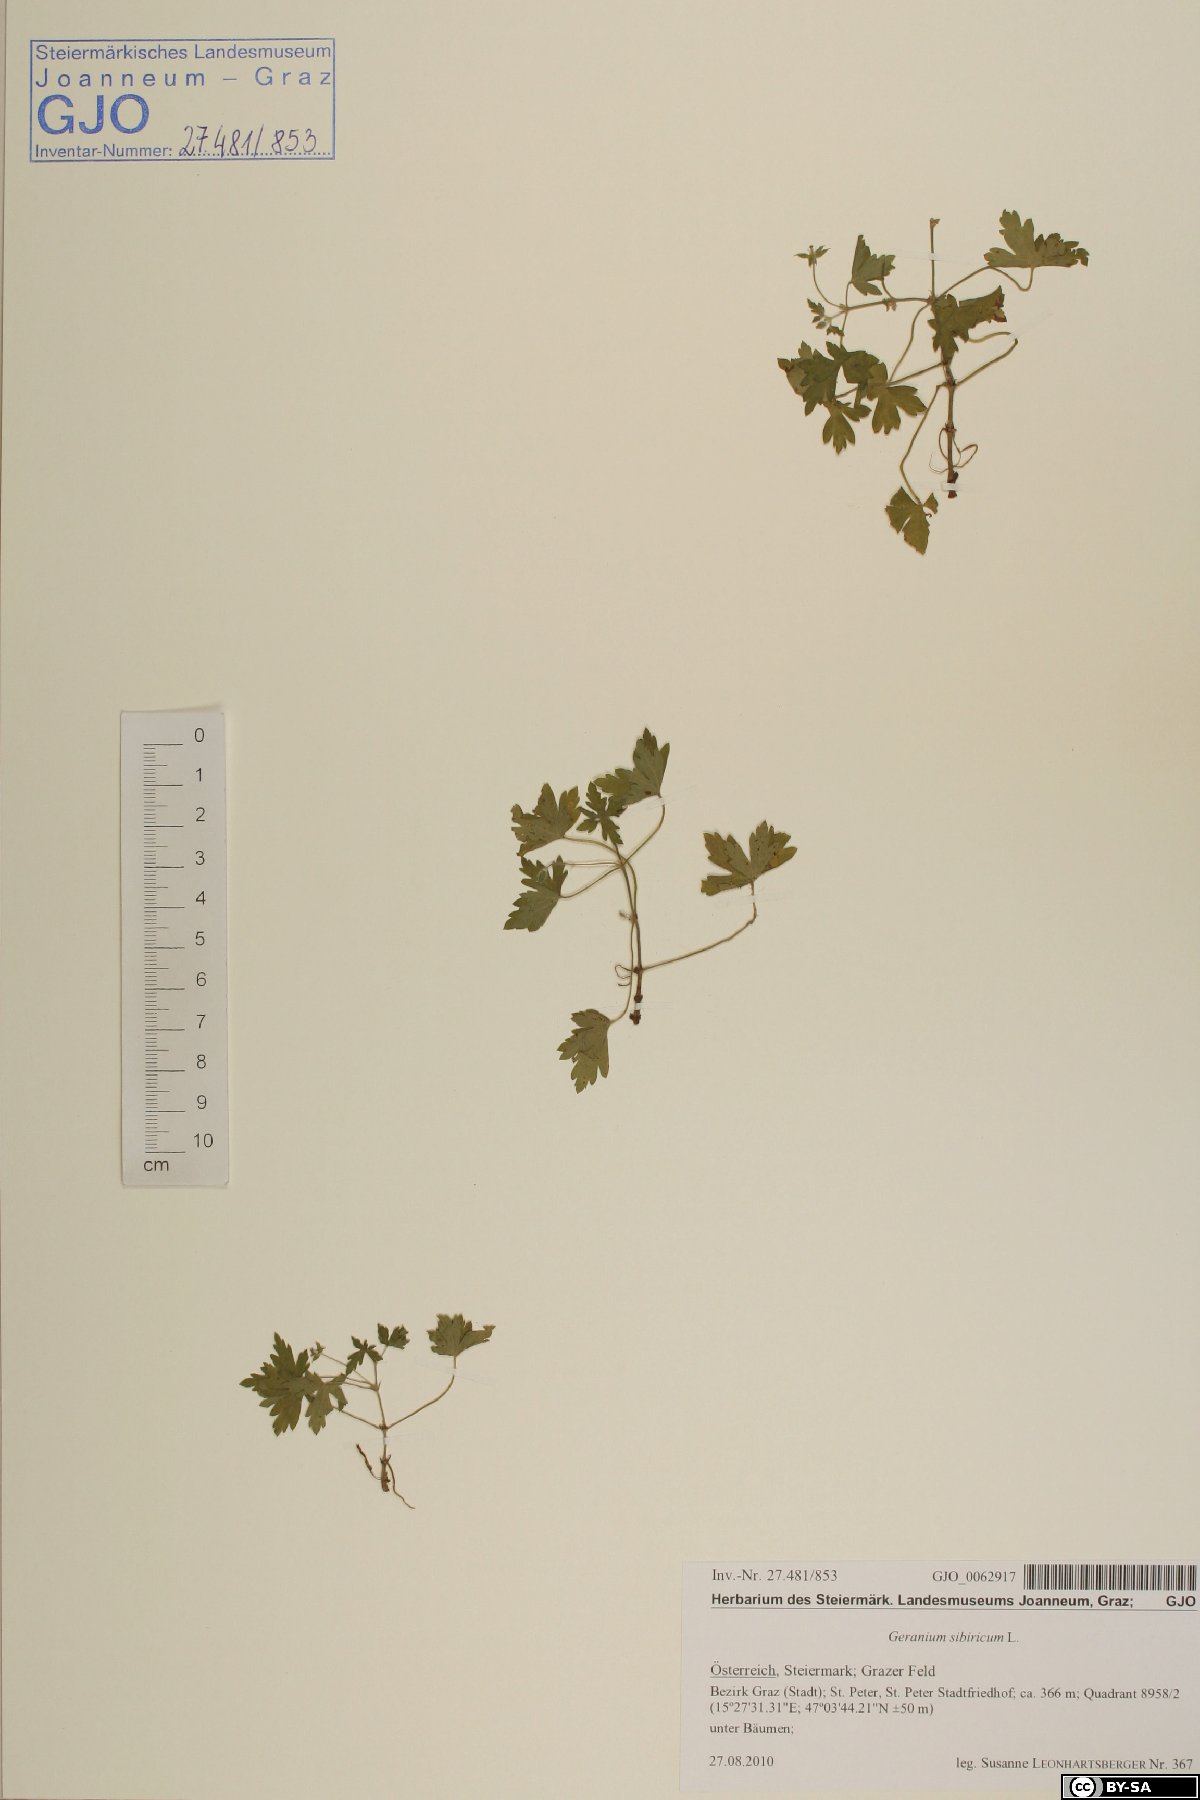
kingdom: Plantae
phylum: Tracheophyta
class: Magnoliopsida
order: Geraniales
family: Geraniaceae
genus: Geranium
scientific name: Geranium sibiricum
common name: Siberian crane's-bill
